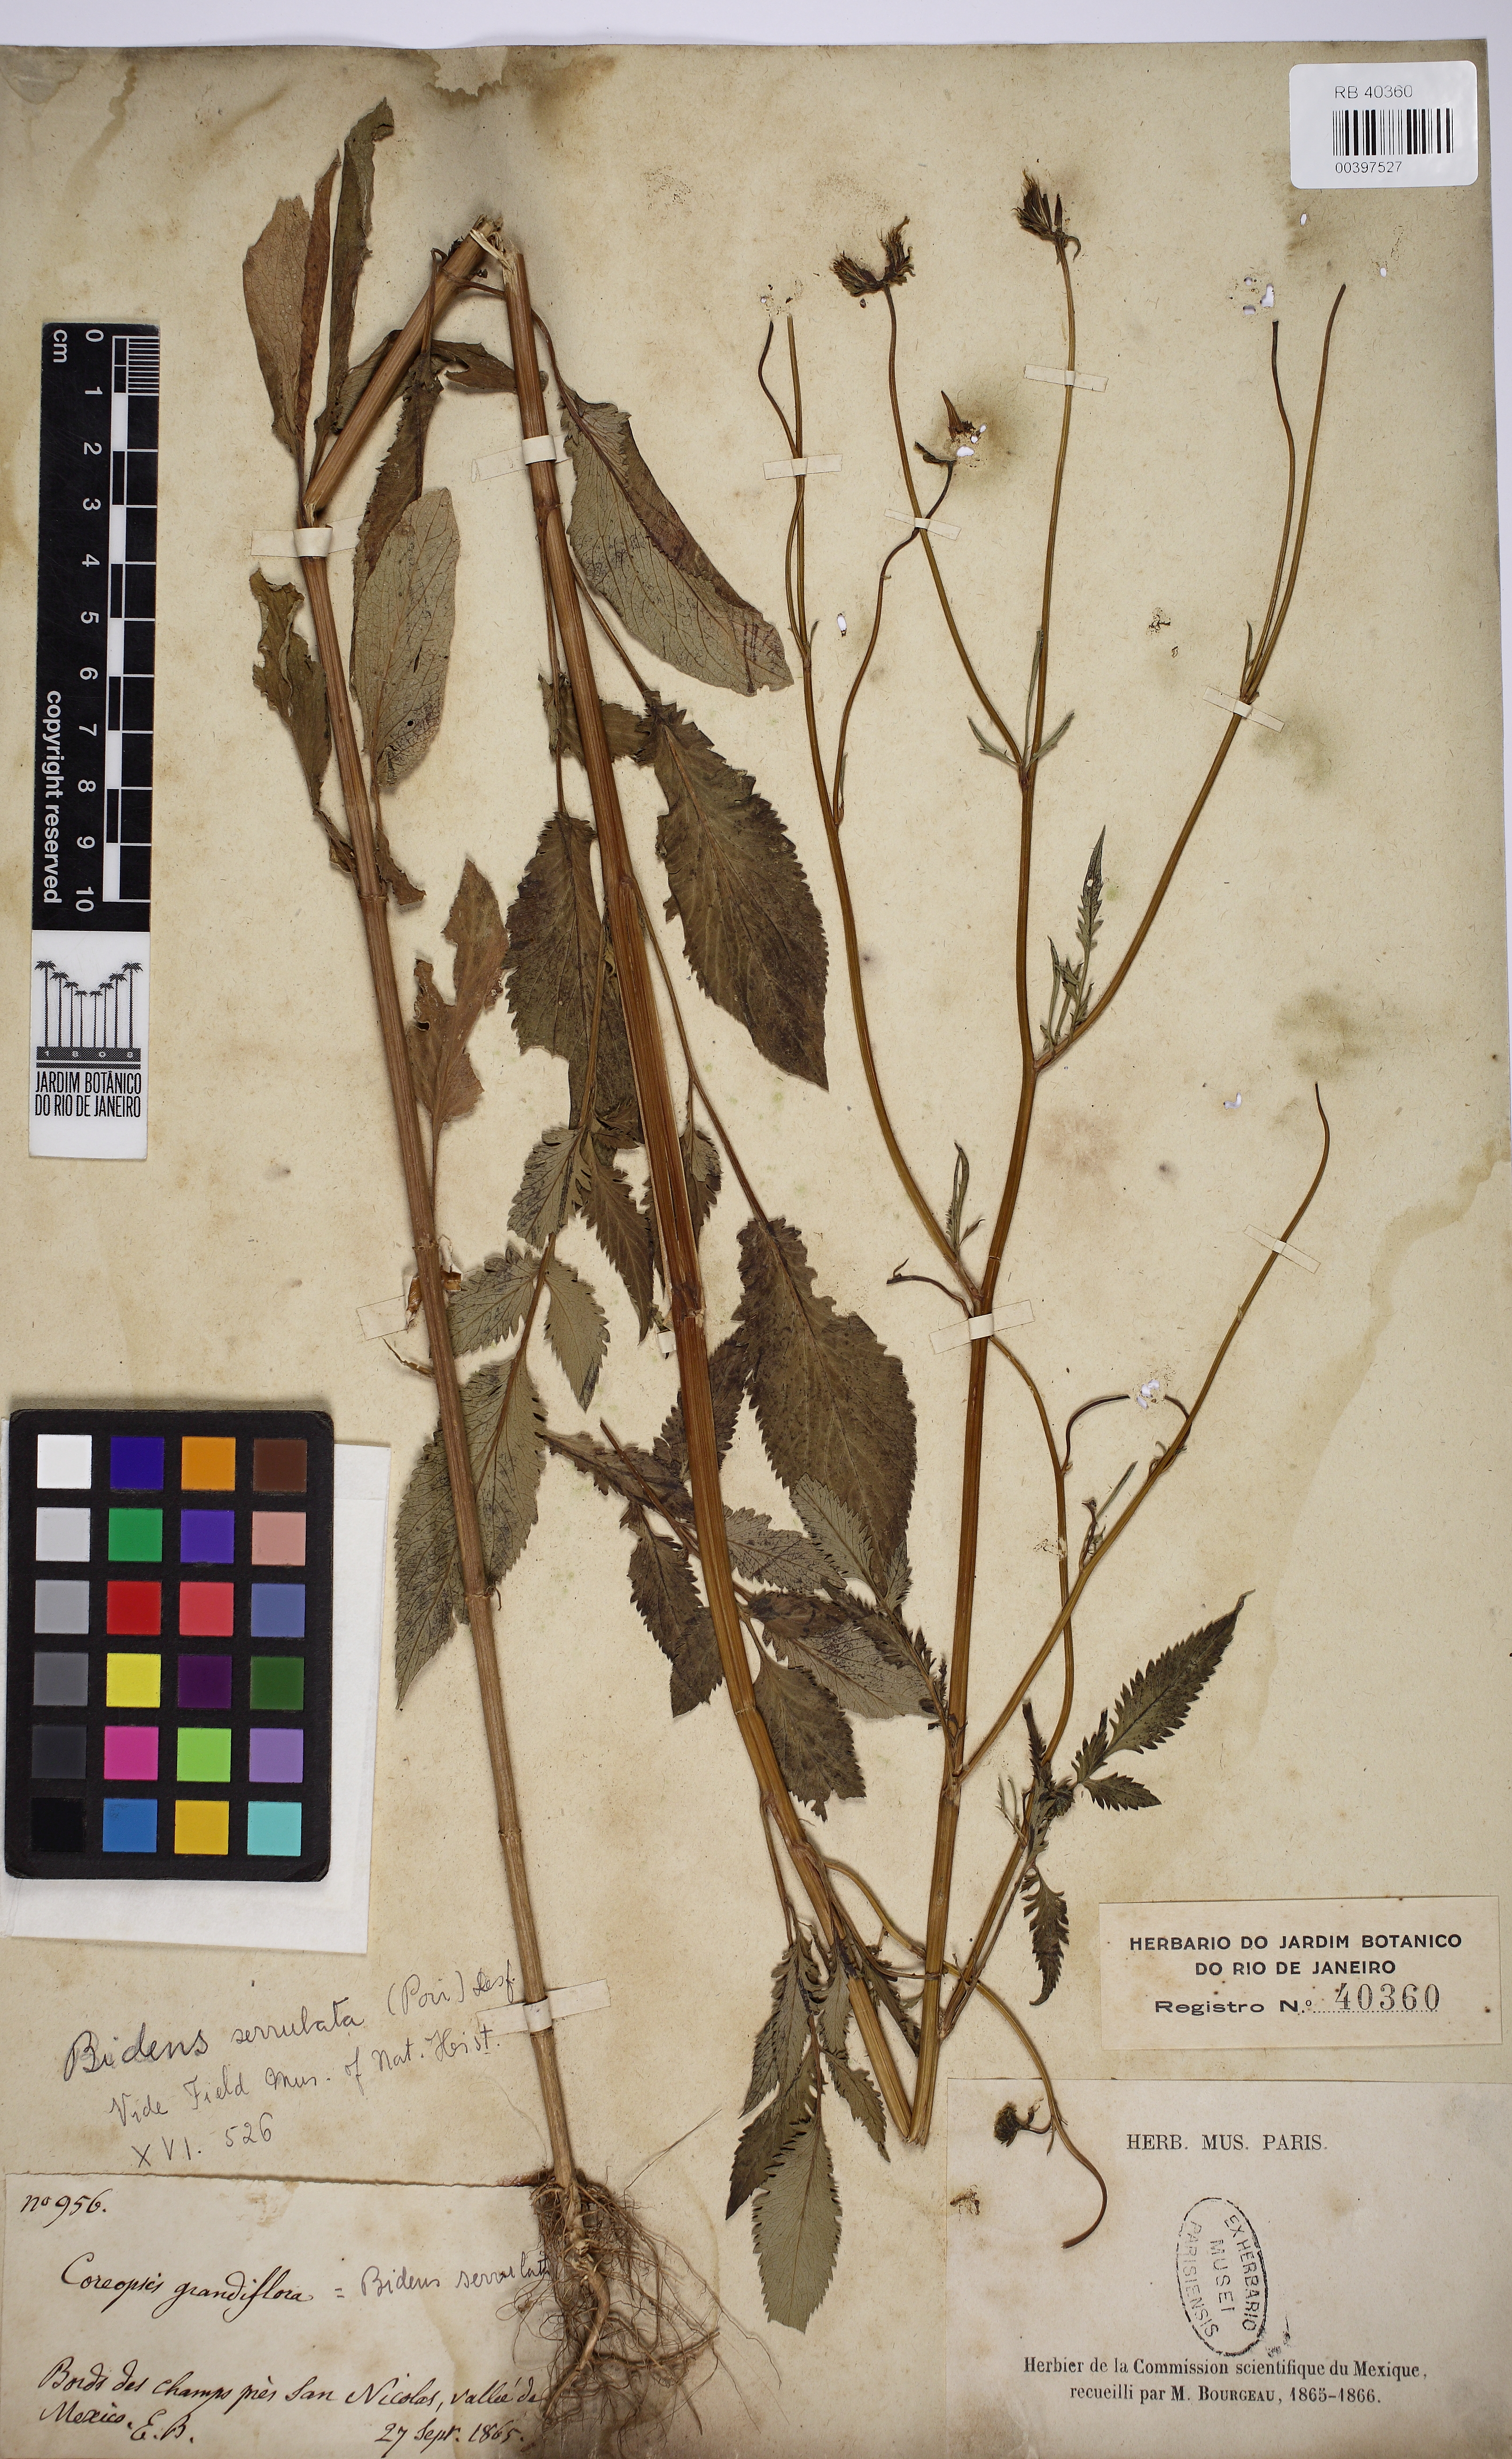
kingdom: Plantae
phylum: Tracheophyta
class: Magnoliopsida
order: Asterales
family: Asteraceae
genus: Bidens
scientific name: Bidens serrulata
